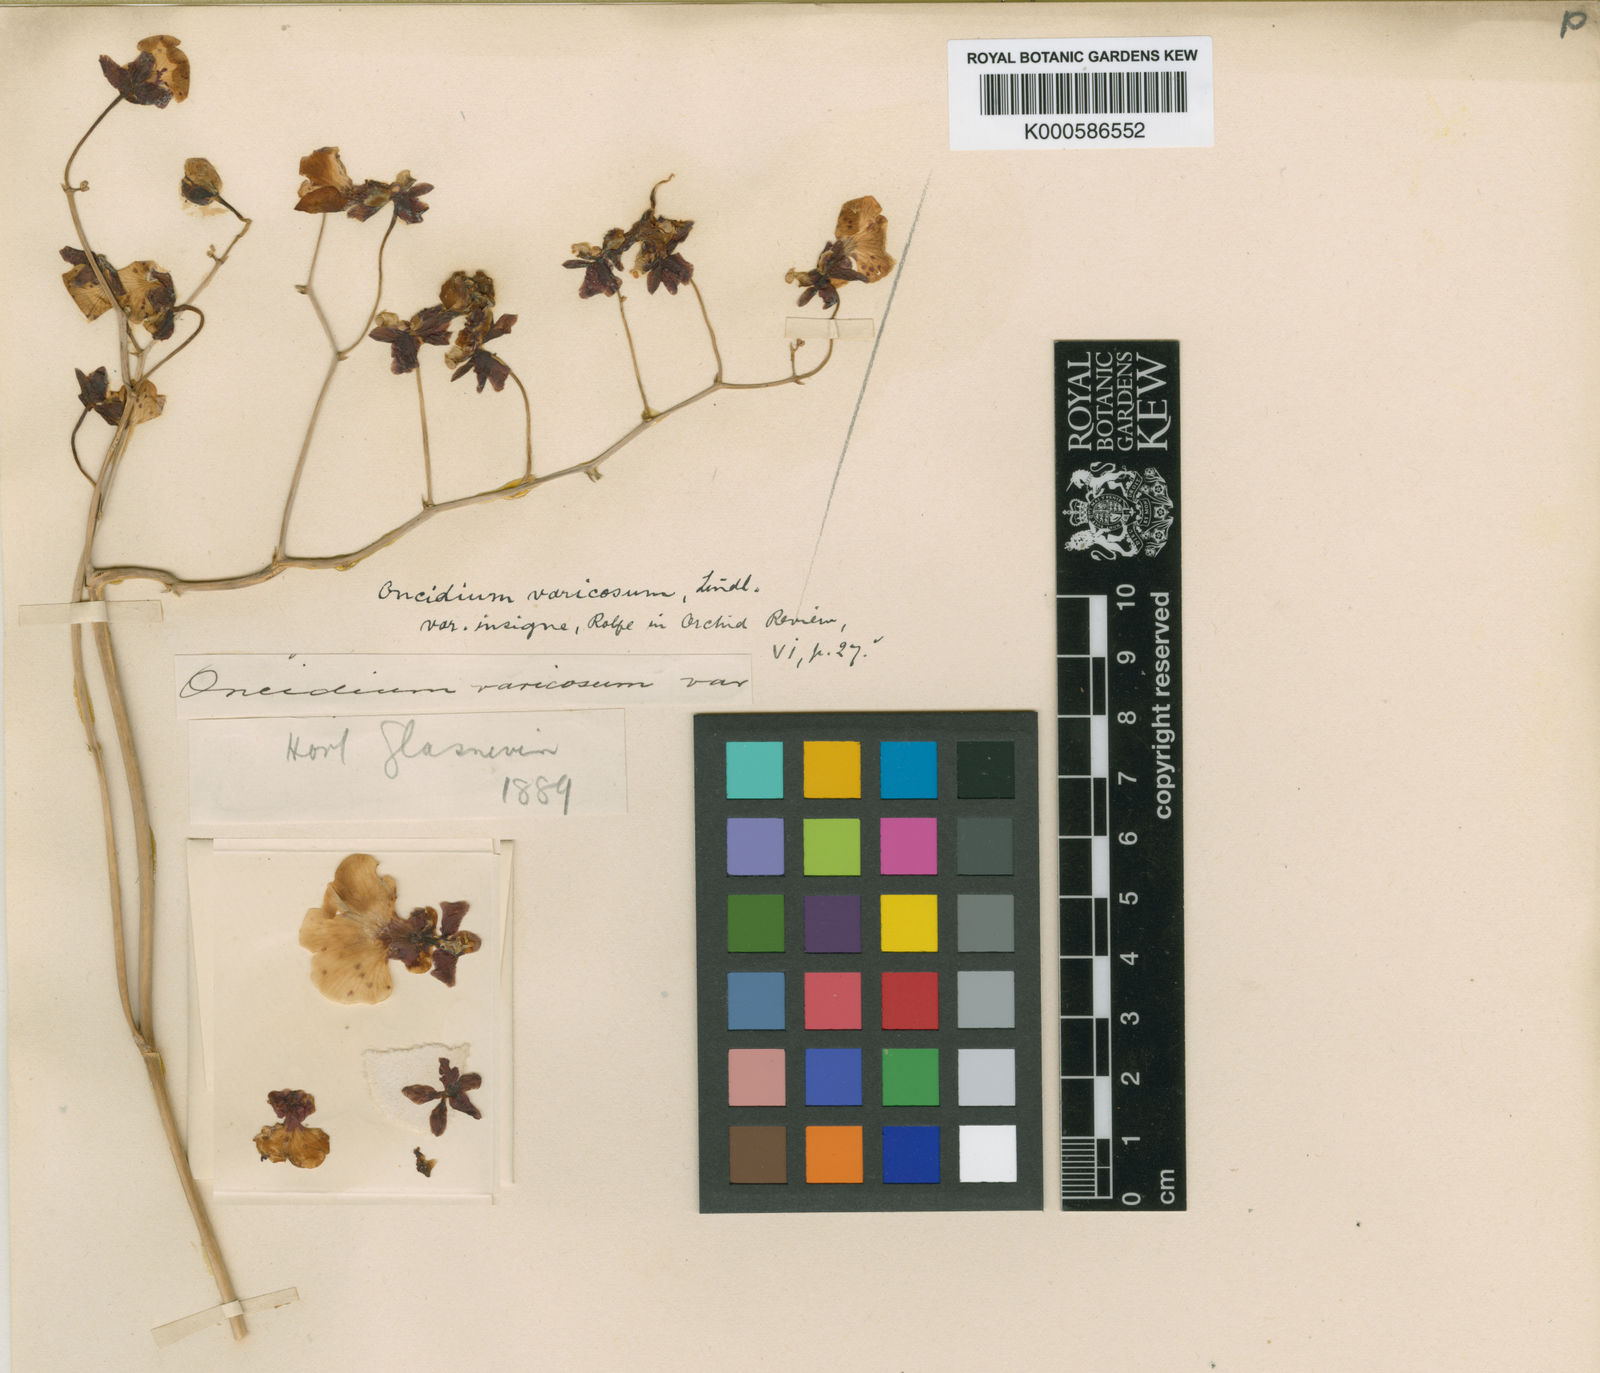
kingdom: Plantae
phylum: Tracheophyta
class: Liliopsida
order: Asparagales
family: Orchidaceae
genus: Gomesa
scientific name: Gomesa varicosa
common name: Dancing ladies
